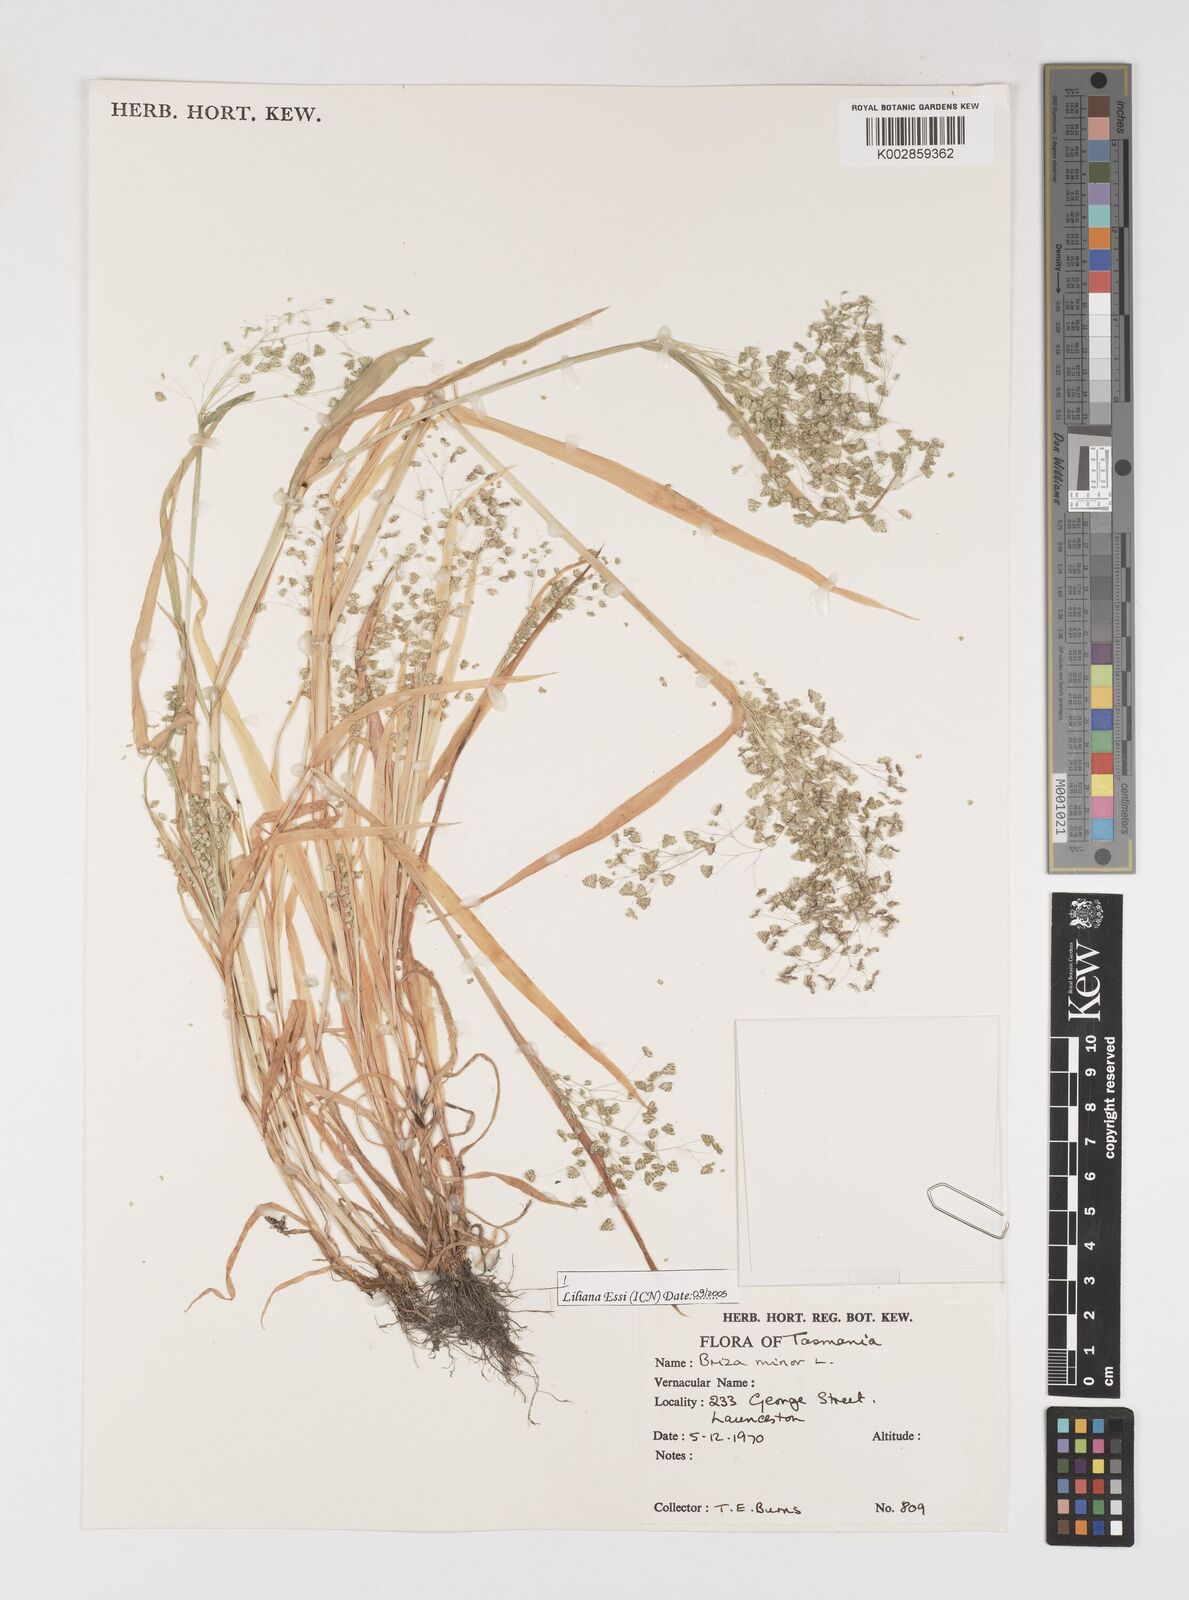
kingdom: Plantae
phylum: Tracheophyta
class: Liliopsida
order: Poales
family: Poaceae
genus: Briza
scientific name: Briza minor
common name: Lesser quaking-grass
